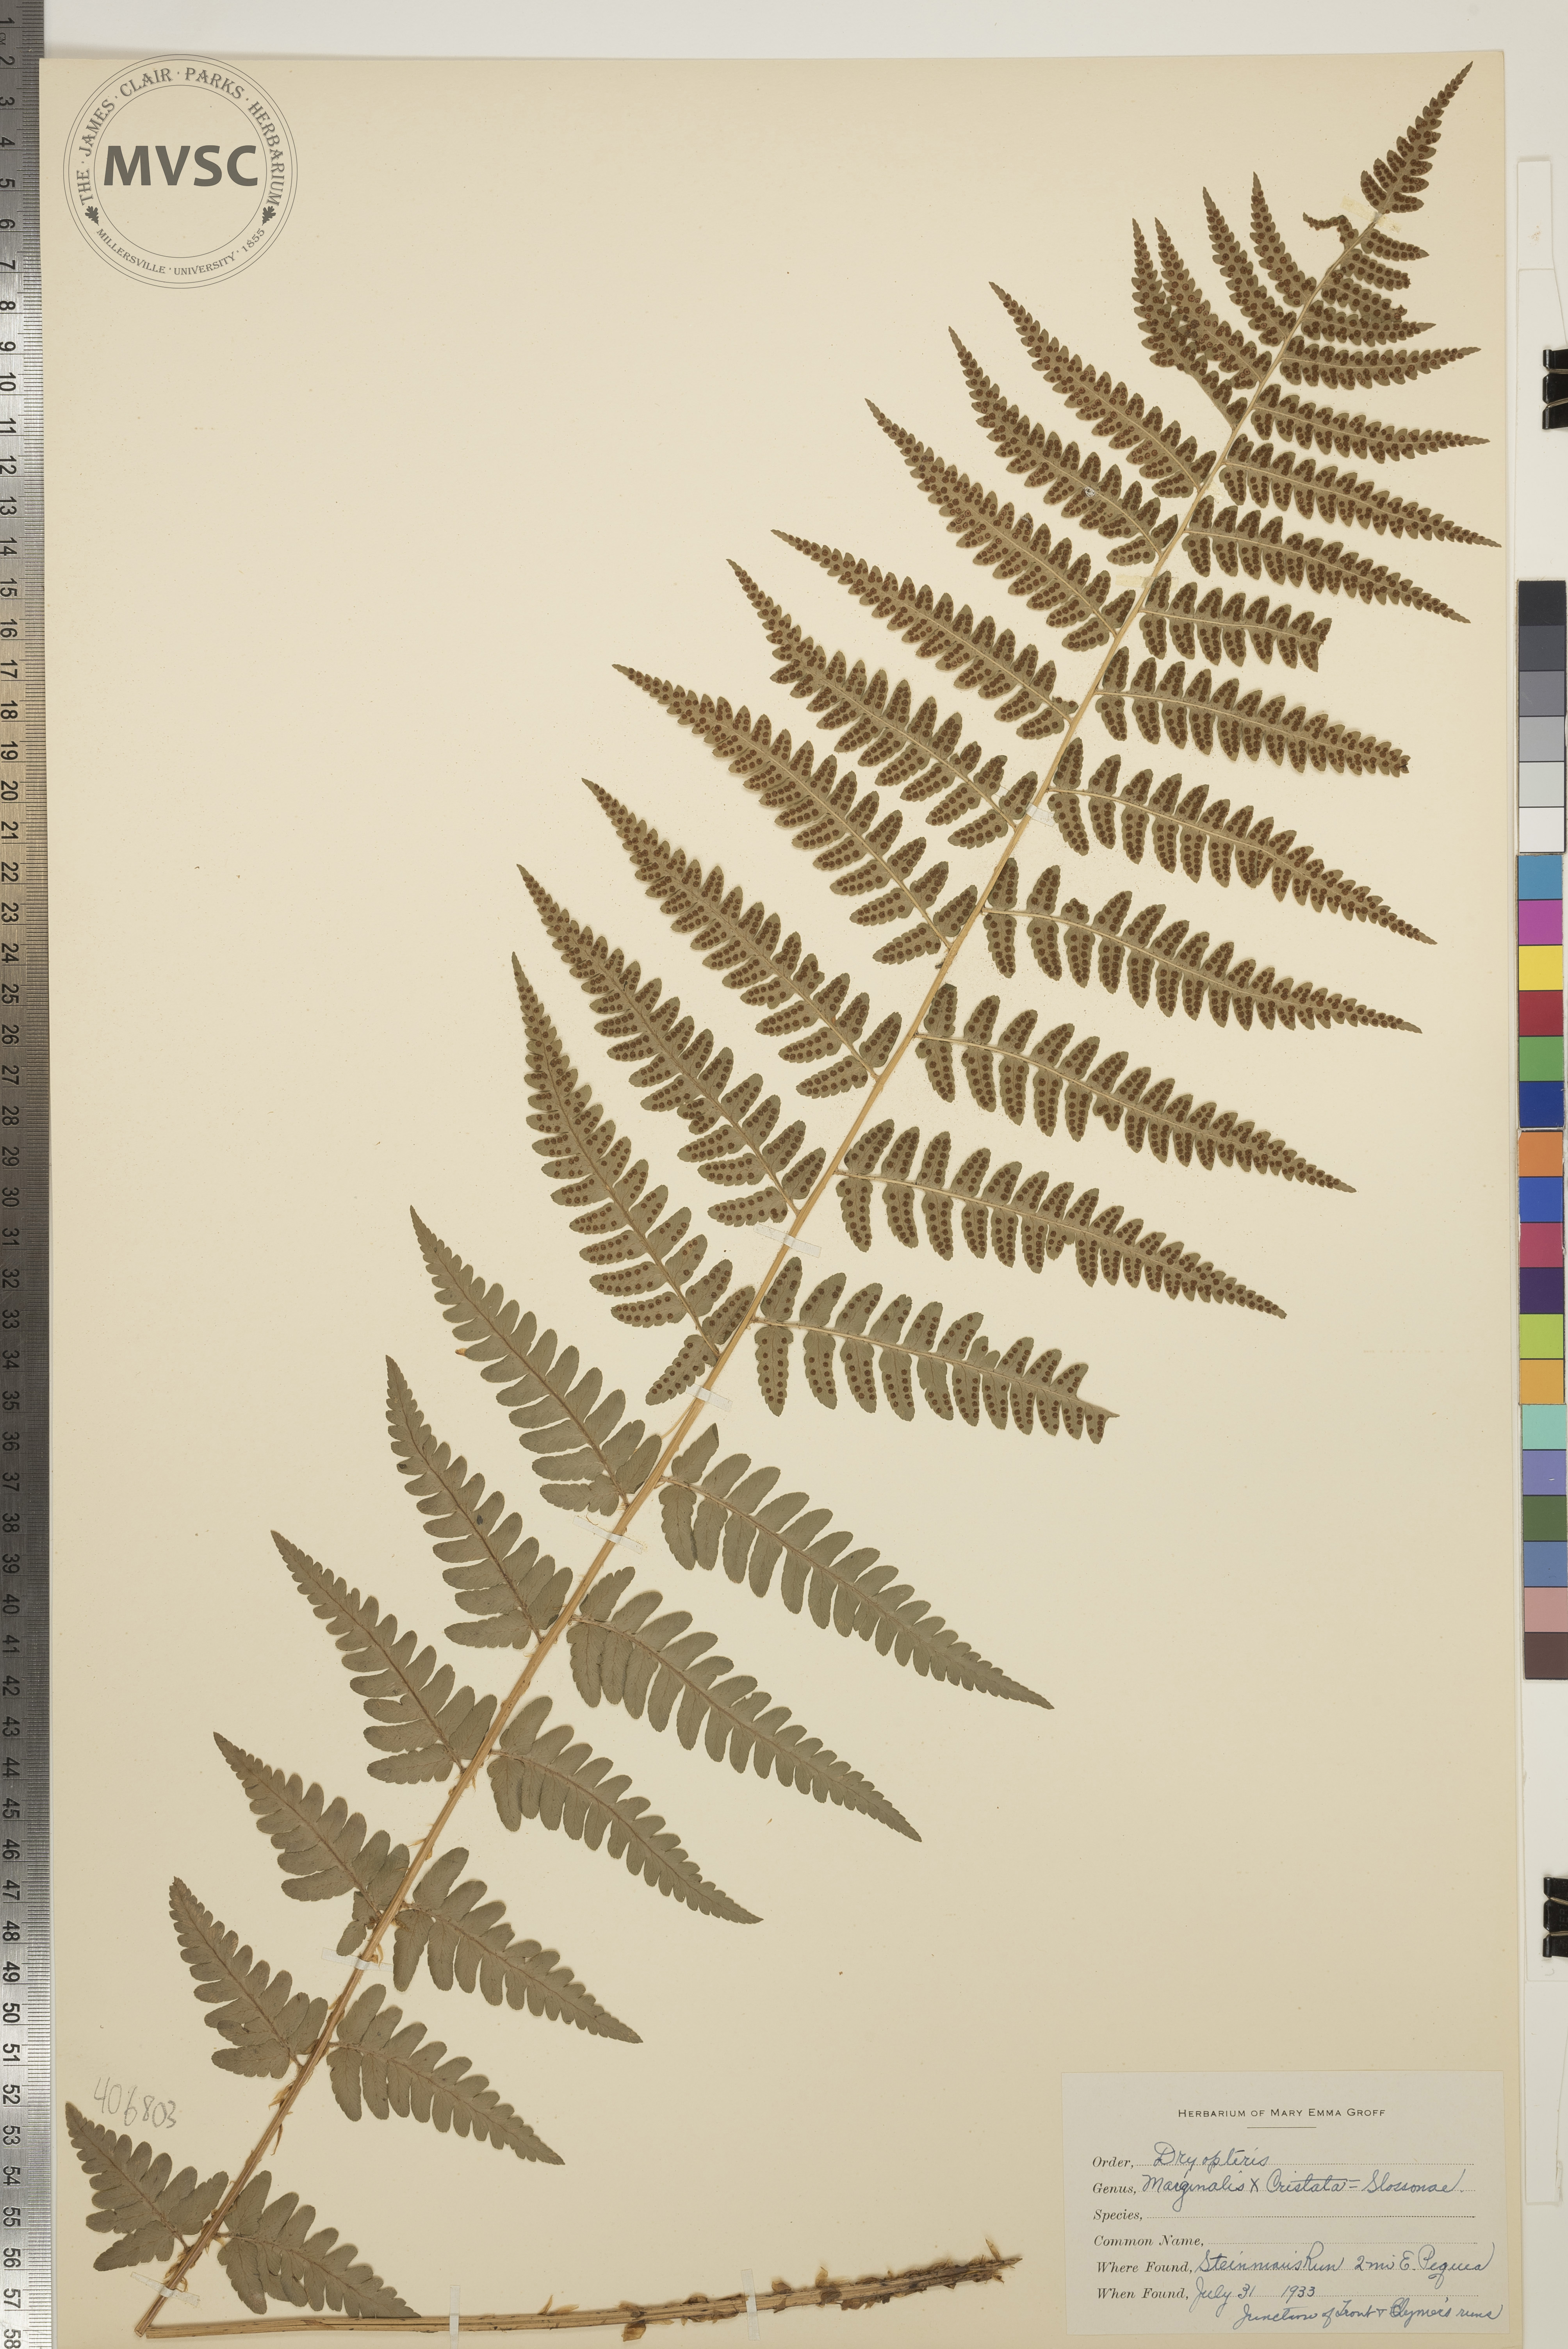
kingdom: Plantae
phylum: Tracheophyta
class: Polypodiopsida
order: Polypodiales
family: Dryopteridaceae
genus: Dryopteris
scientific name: Dryopteris
